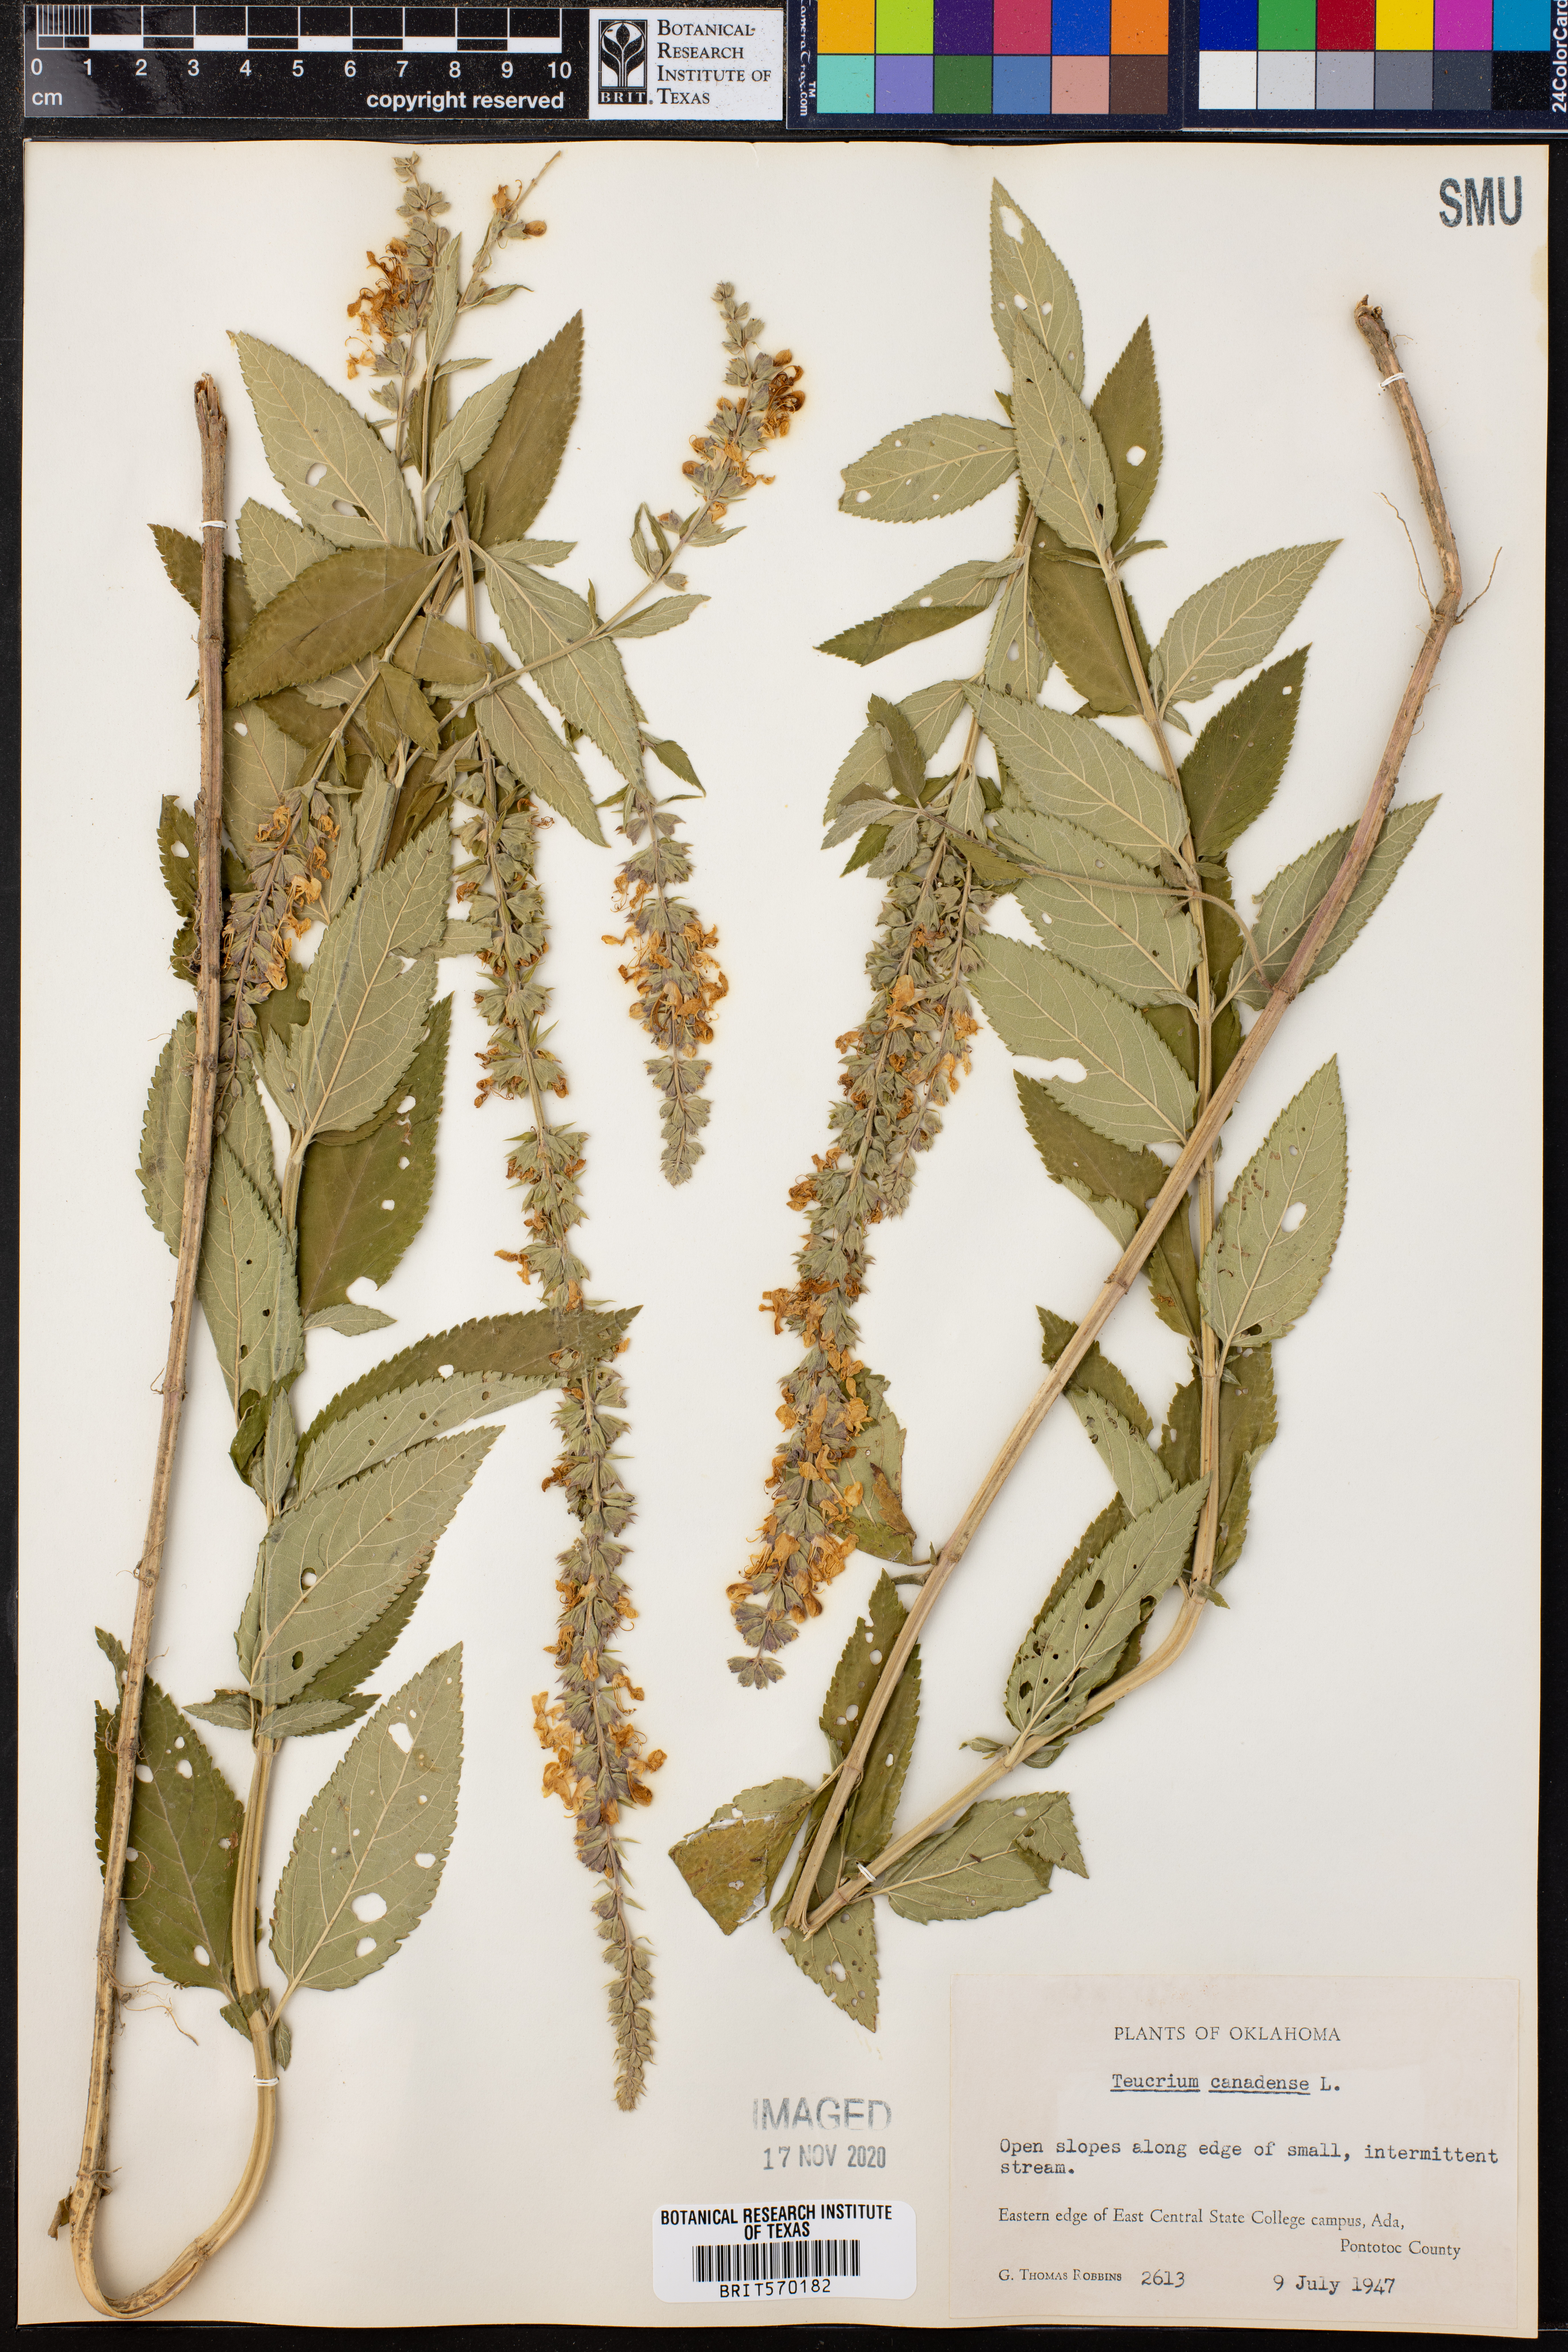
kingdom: Plantae
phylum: Tracheophyta
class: Magnoliopsida
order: Lamiales
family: Lamiaceae
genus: Teucrium
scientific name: Teucrium canadense
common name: American germander
